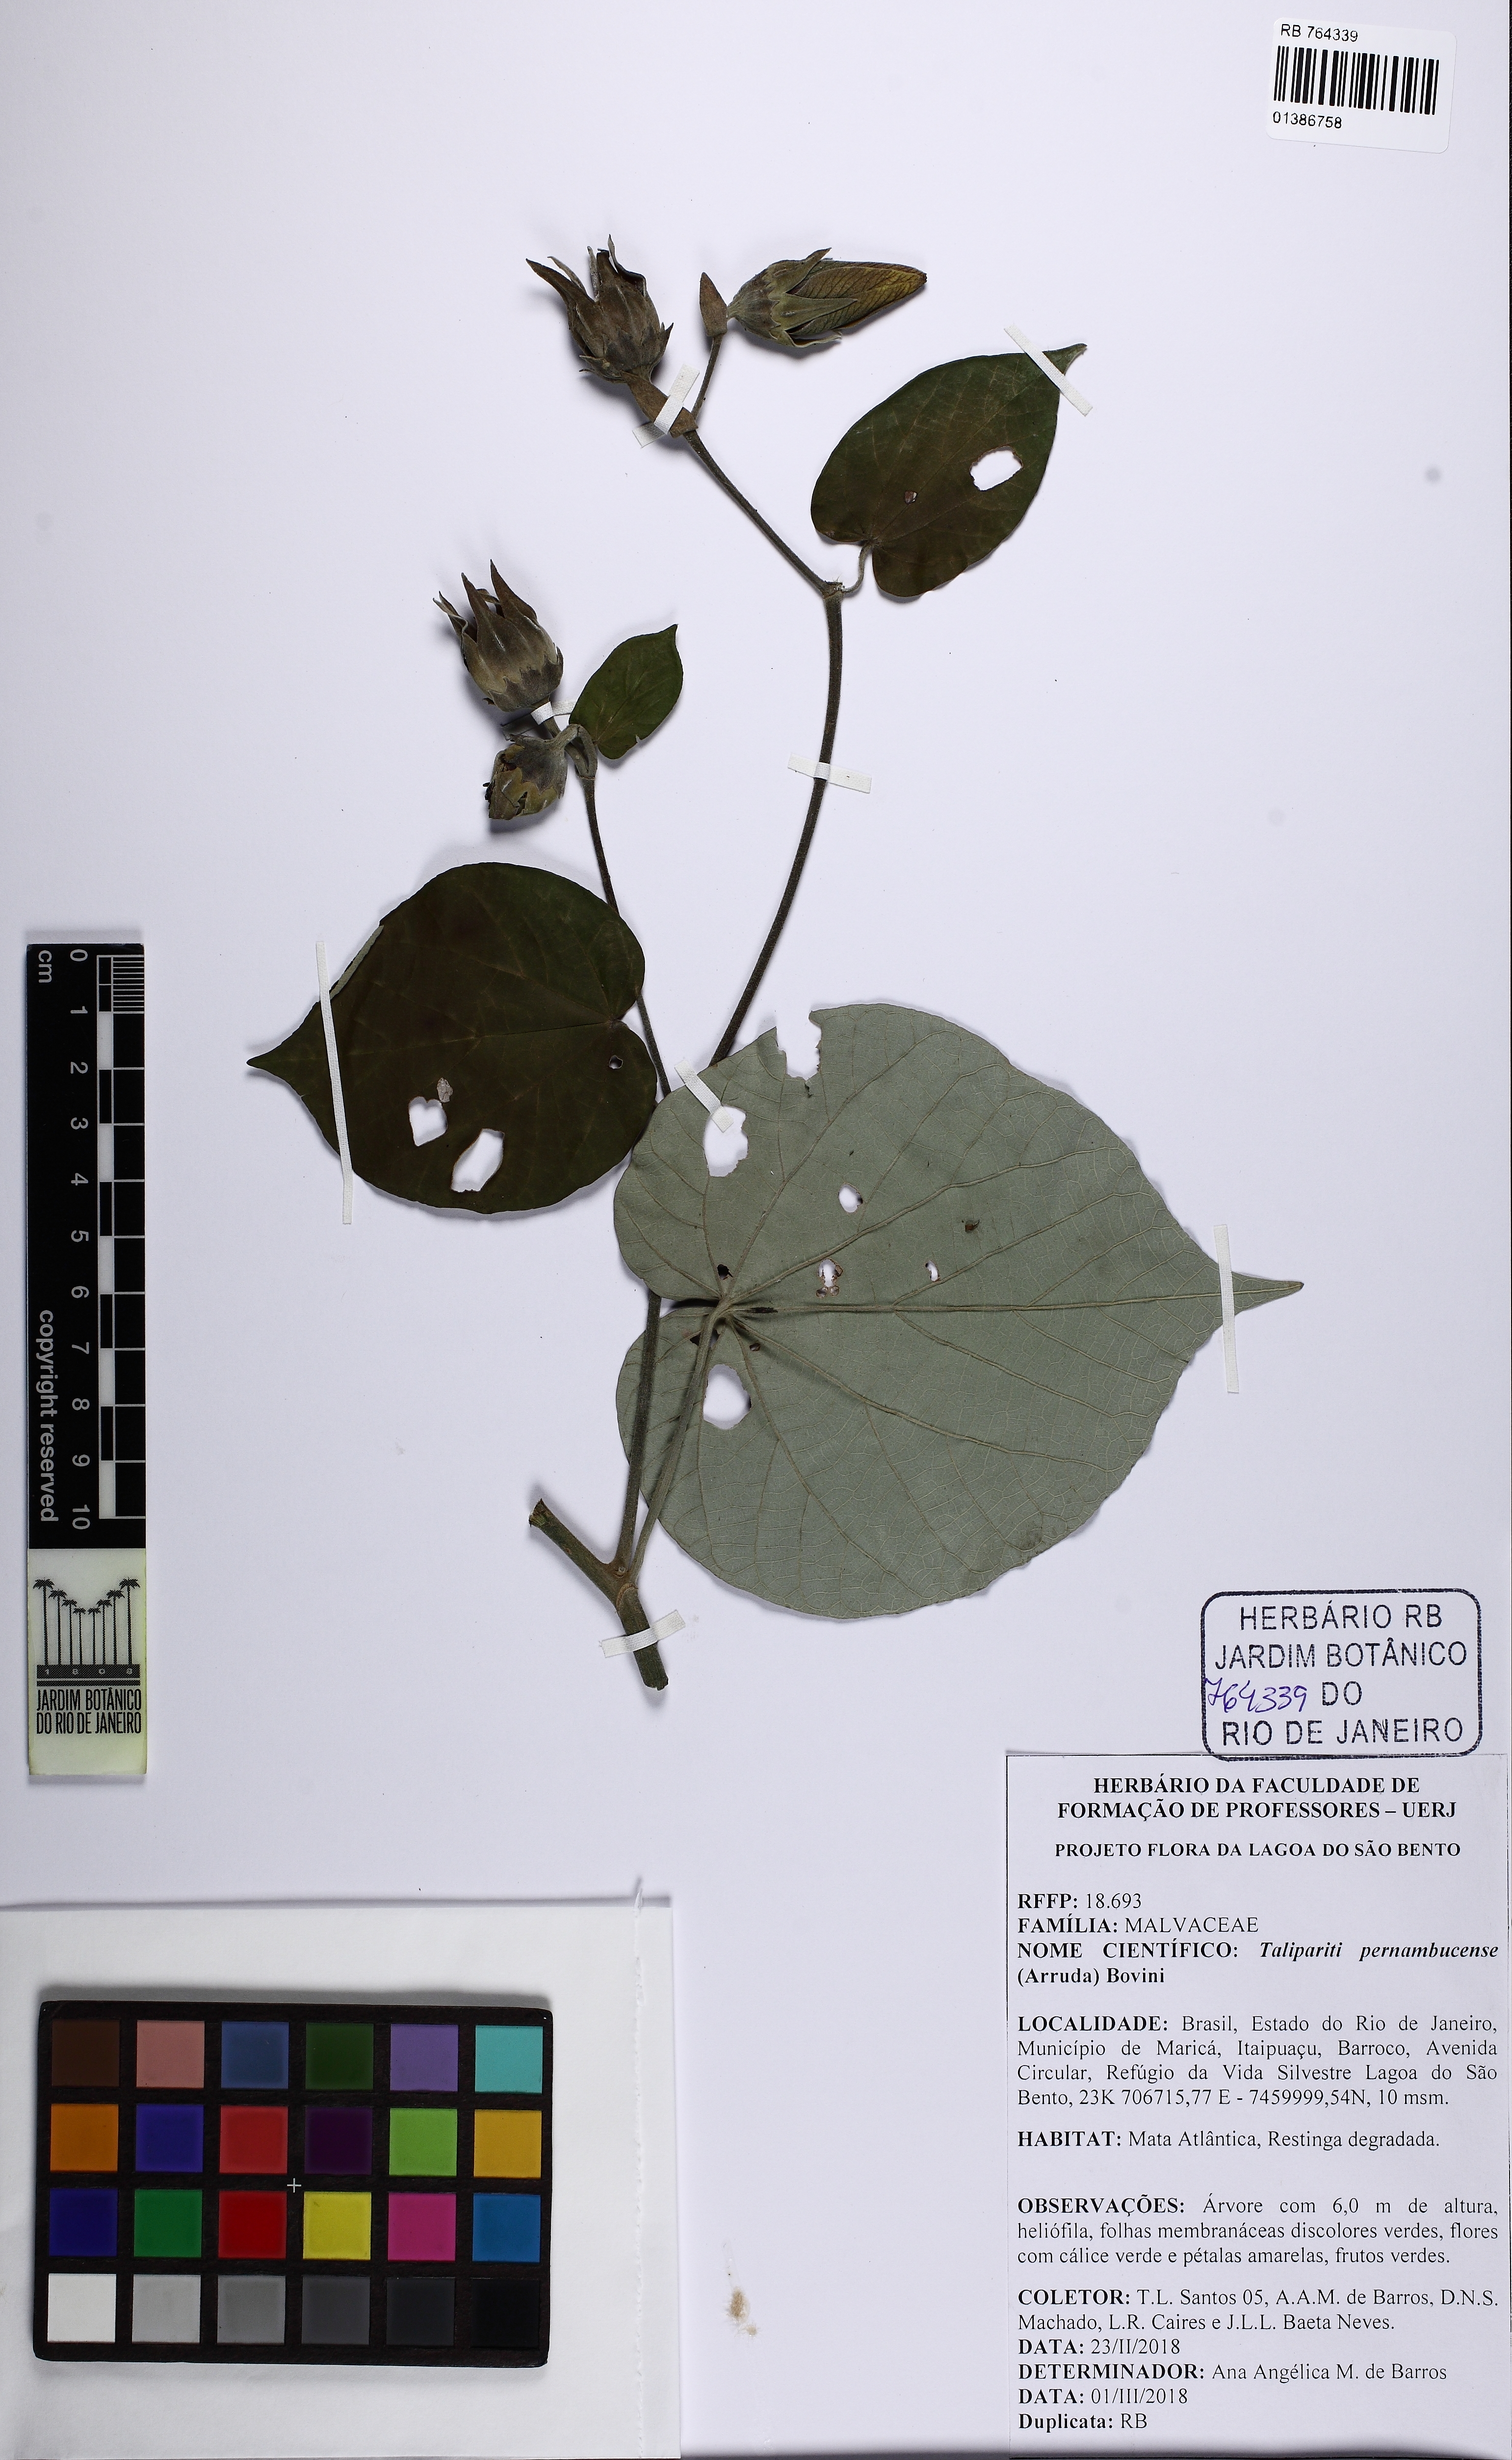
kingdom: Plantae
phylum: Tracheophyta
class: Magnoliopsida
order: Malvales
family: Malvaceae
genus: Talipariti
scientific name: Talipariti pernambucense
